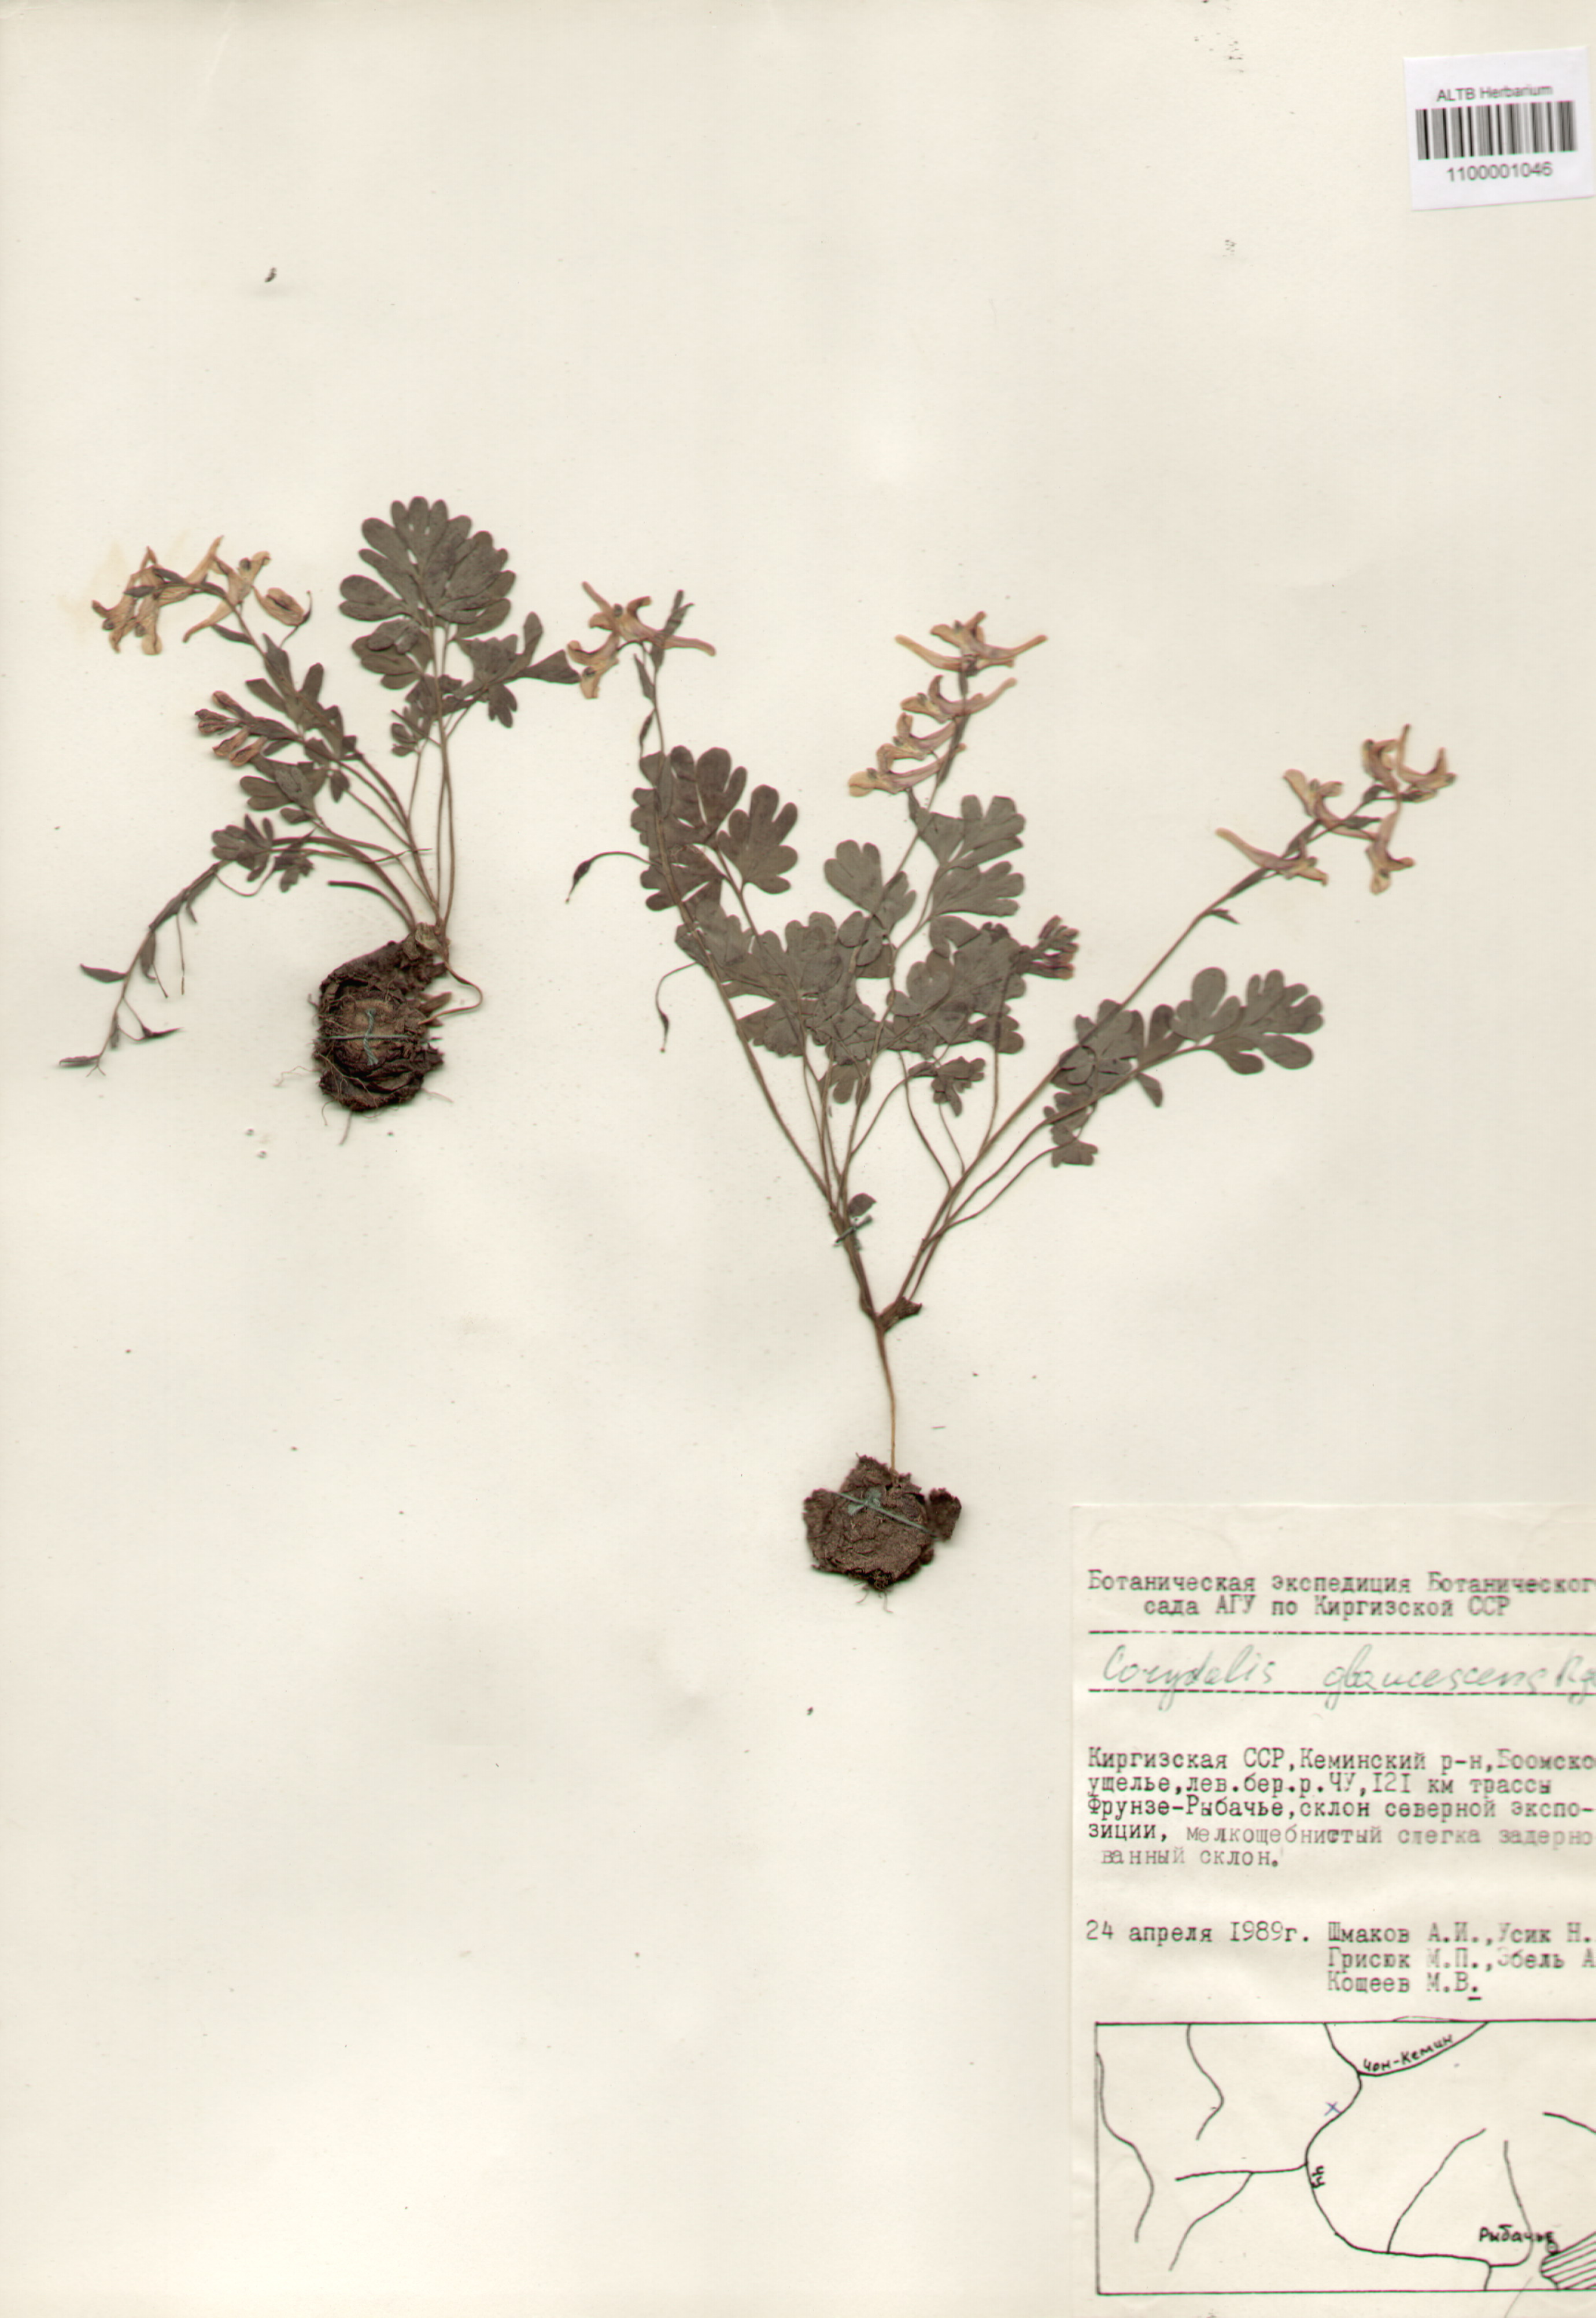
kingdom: Plantae
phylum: Tracheophyta
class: Magnoliopsida
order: Ranunculales
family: Papaveraceae
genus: Corydalis
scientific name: Corydalis glaucescens
